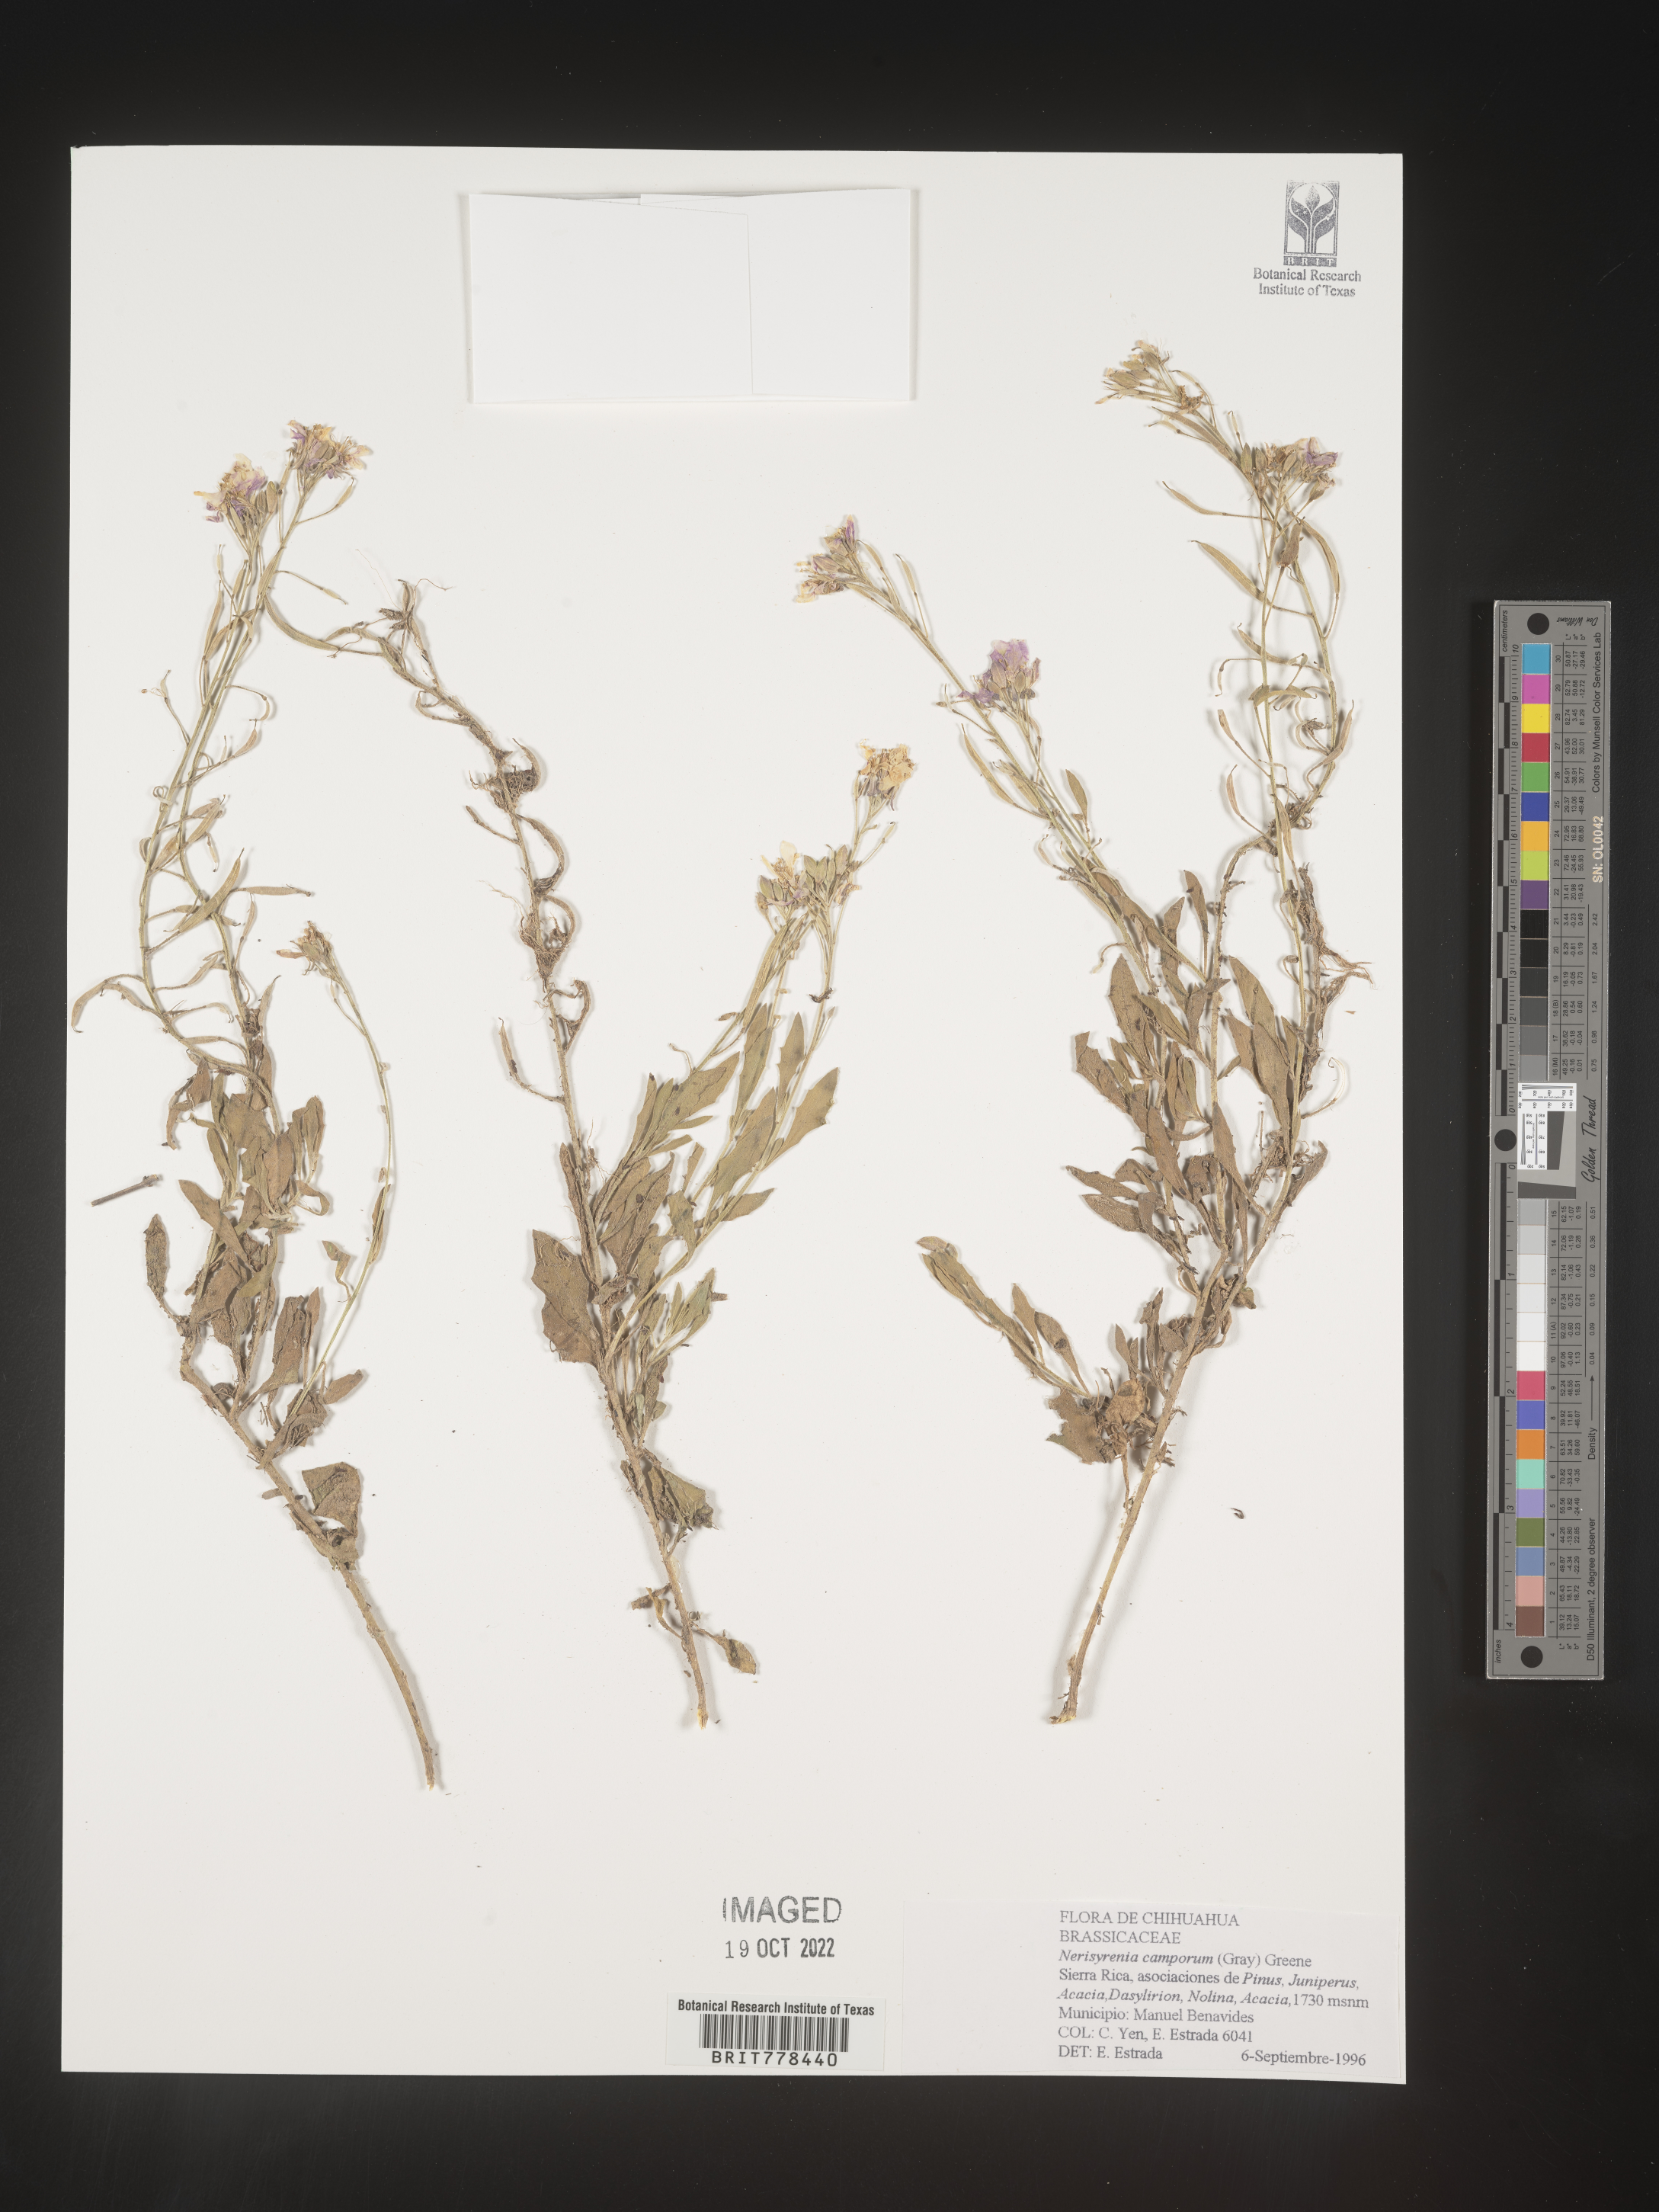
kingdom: Plantae
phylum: Tracheophyta
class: Magnoliopsida
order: Brassicales
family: Brassicaceae
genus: Nerisyrenia
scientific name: Nerisyrenia
